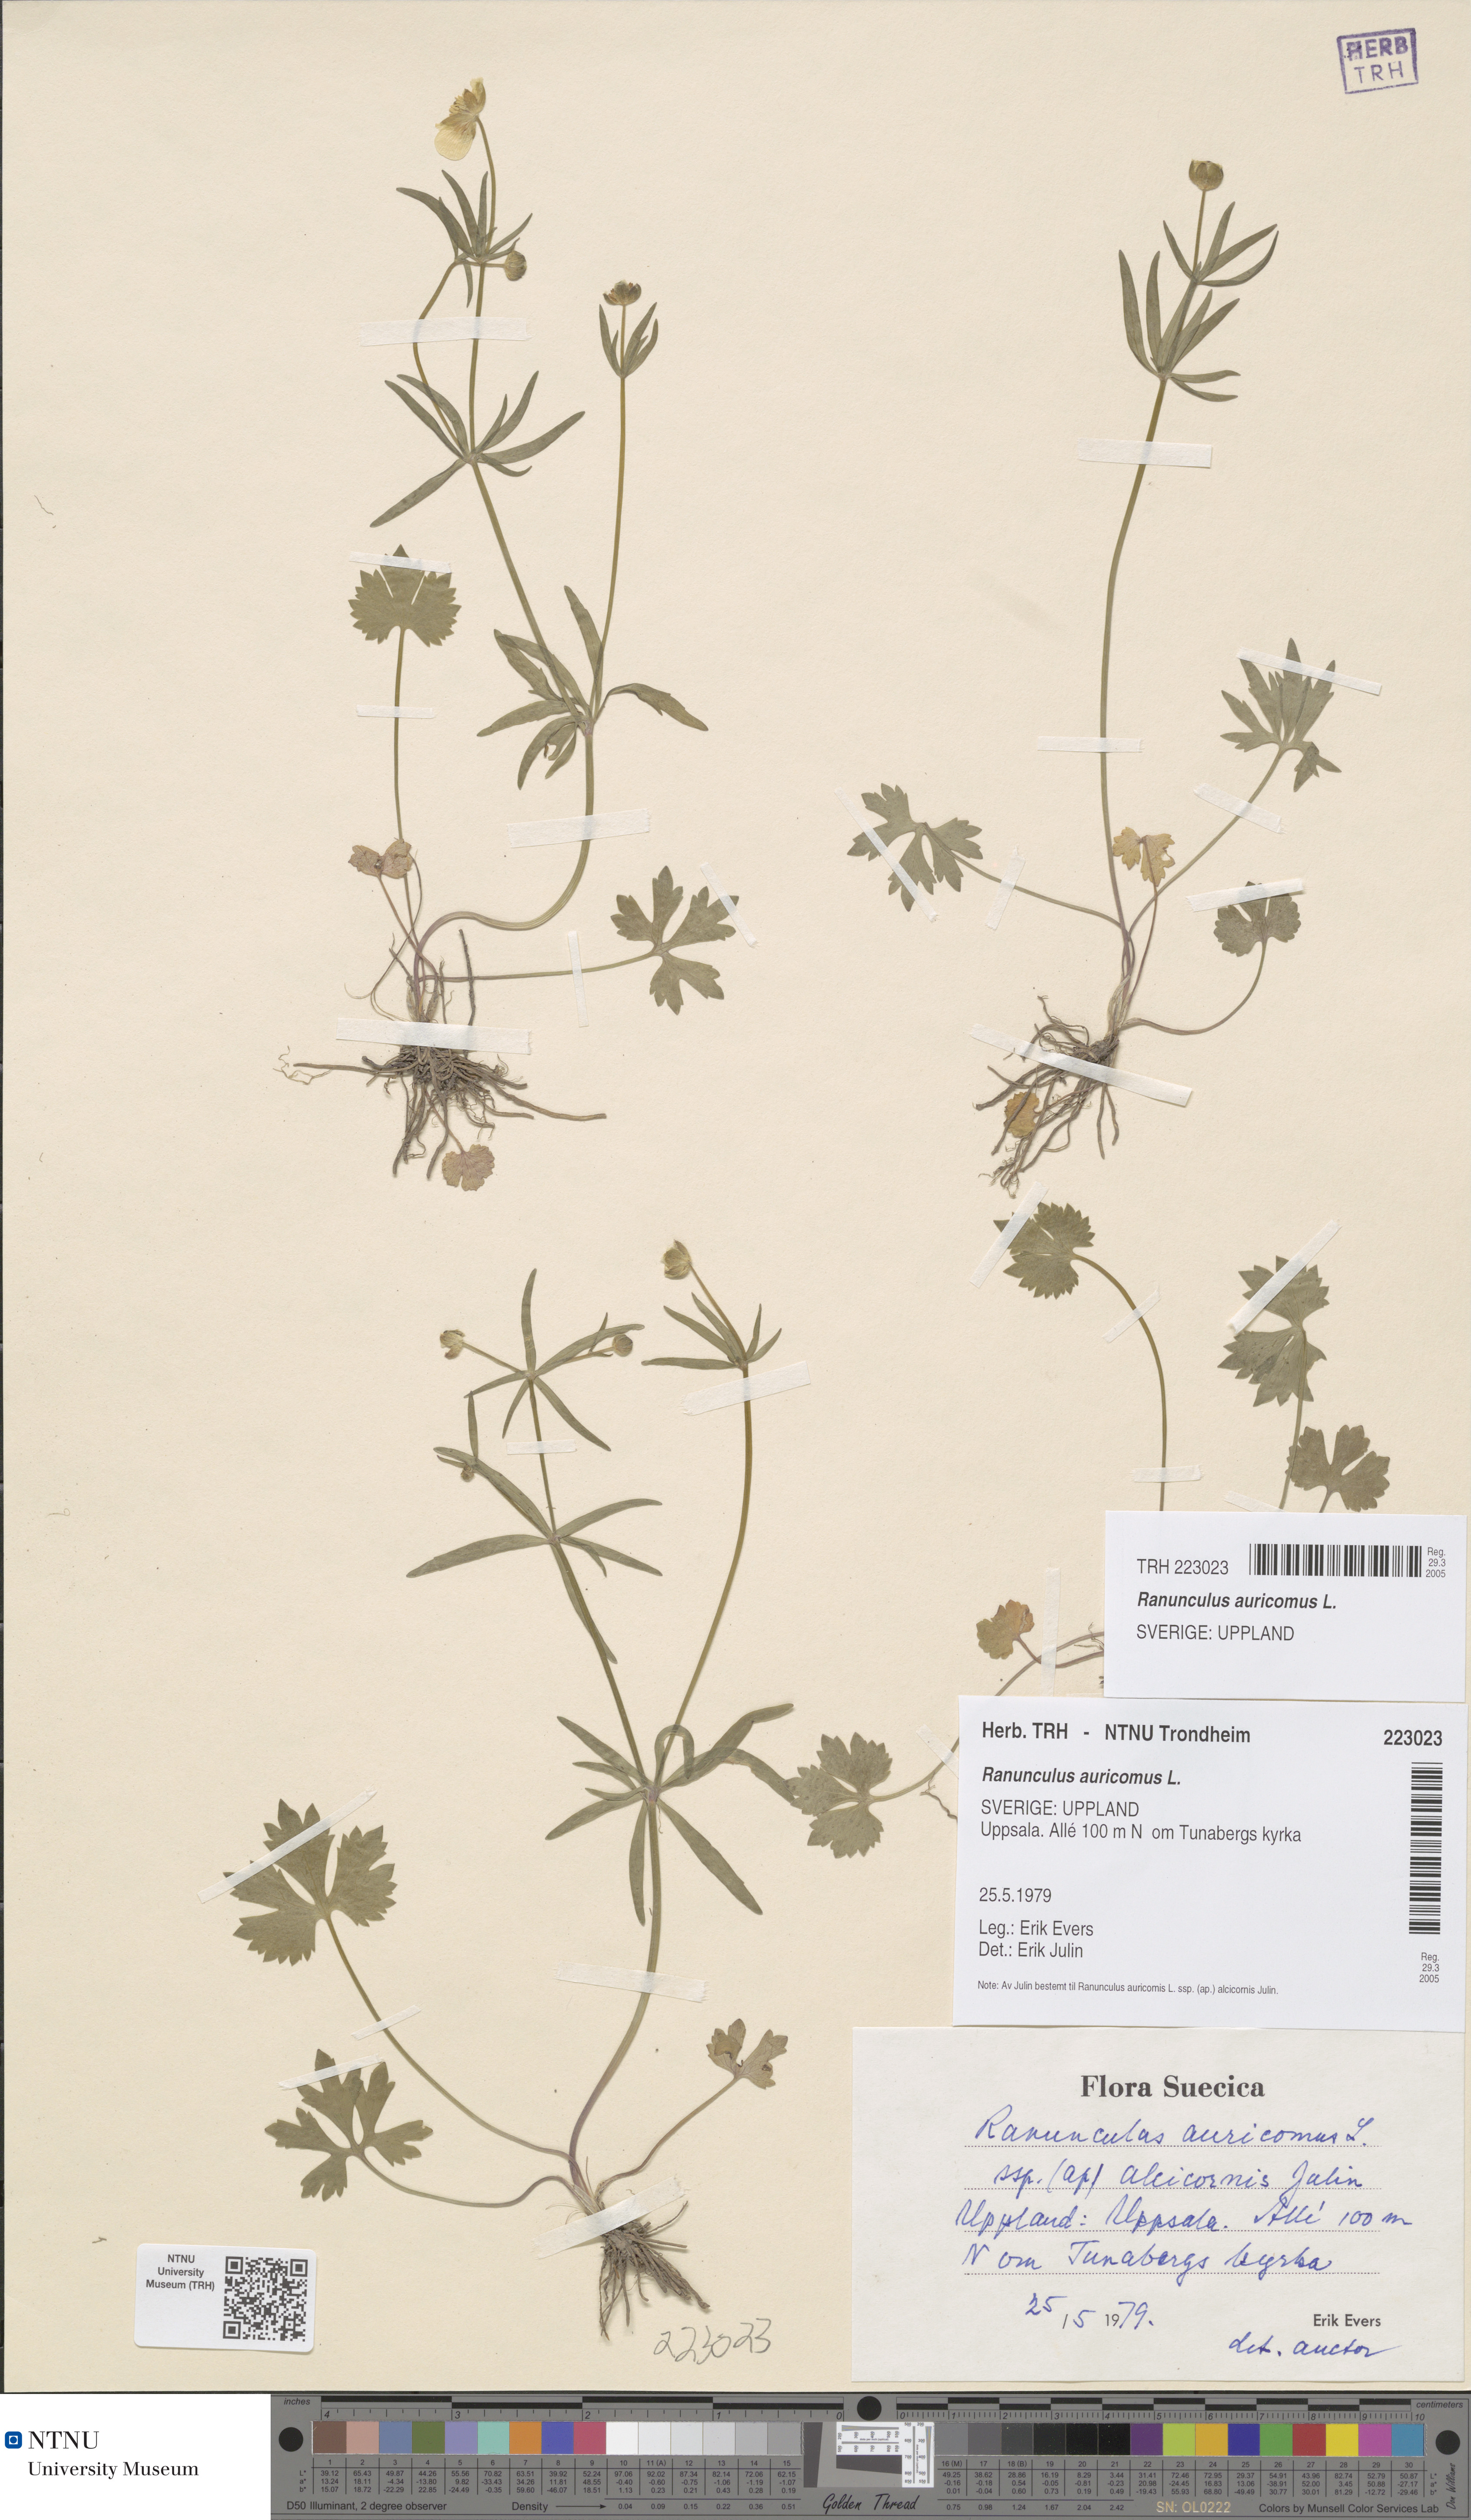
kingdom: Plantae
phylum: Tracheophyta
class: Magnoliopsida
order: Ranunculales
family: Ranunculaceae
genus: Ranunculus
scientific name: Ranunculus auricomus
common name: Goldilocks buttercup
